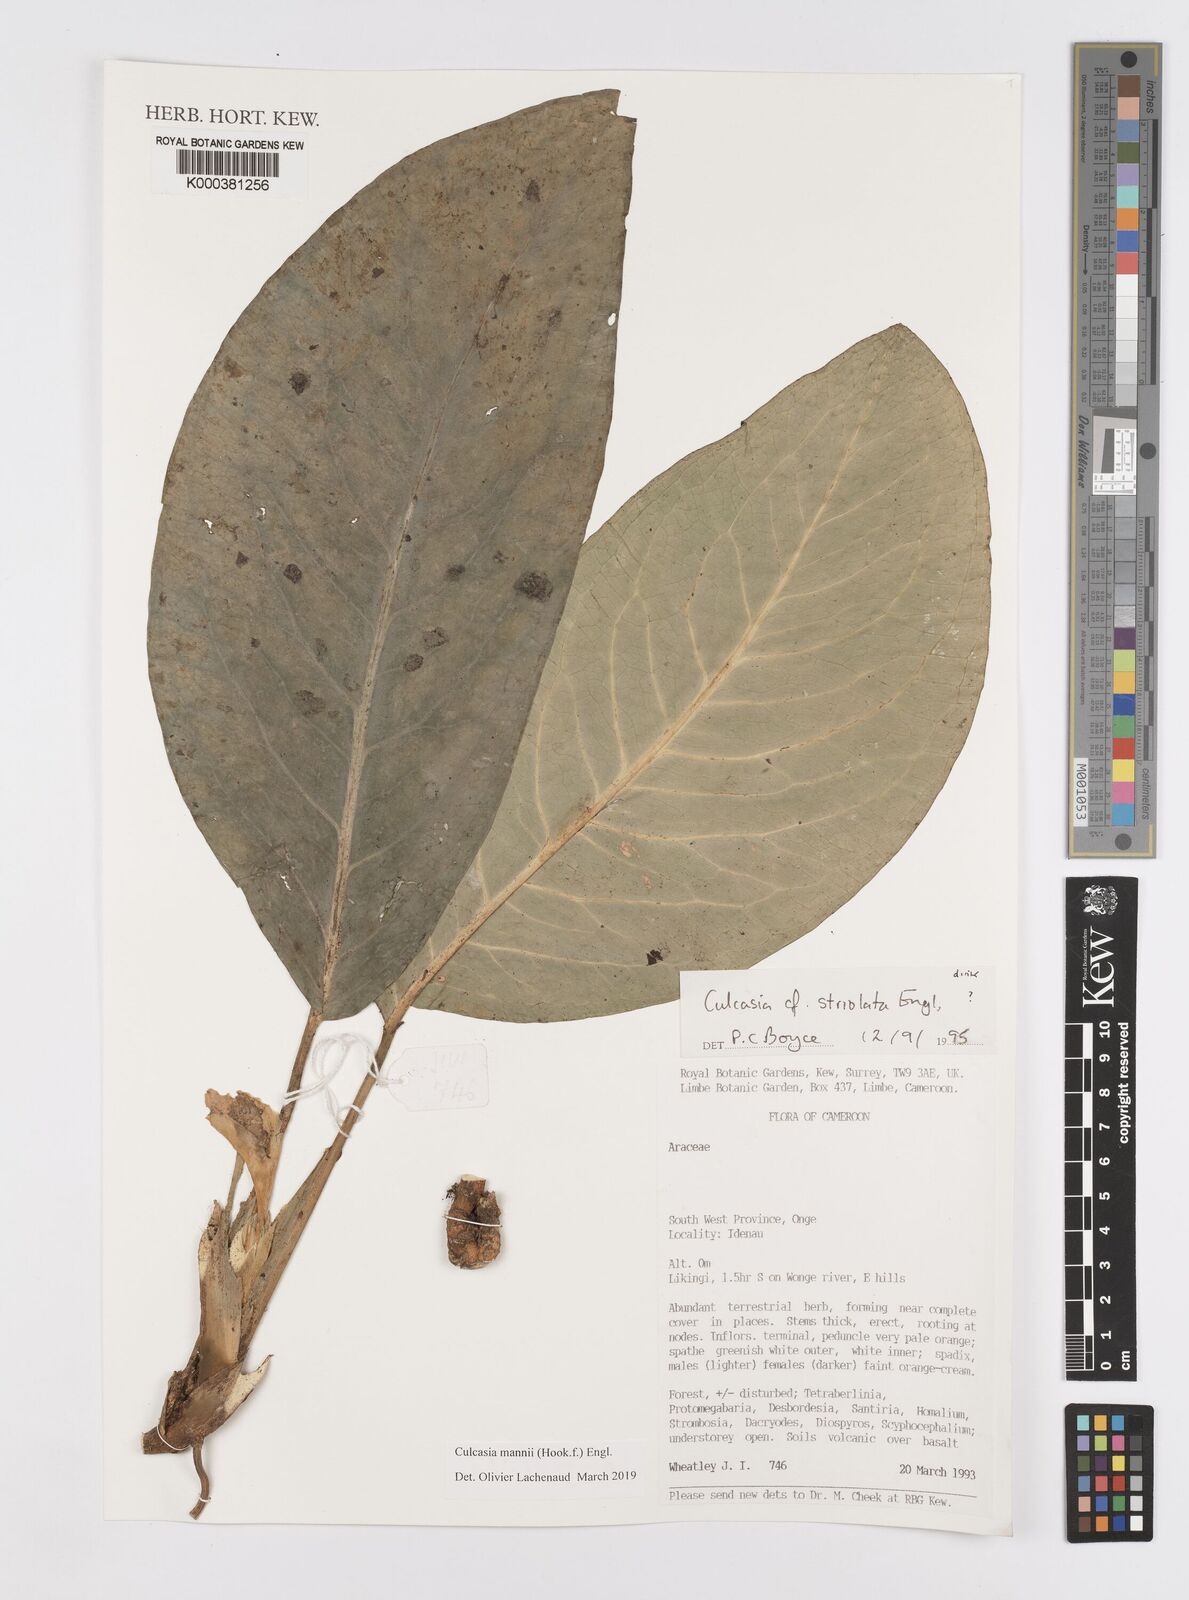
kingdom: Plantae
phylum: Tracheophyta
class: Liliopsida
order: Alismatales
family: Araceae
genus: Culcasia
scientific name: Culcasia mannii
